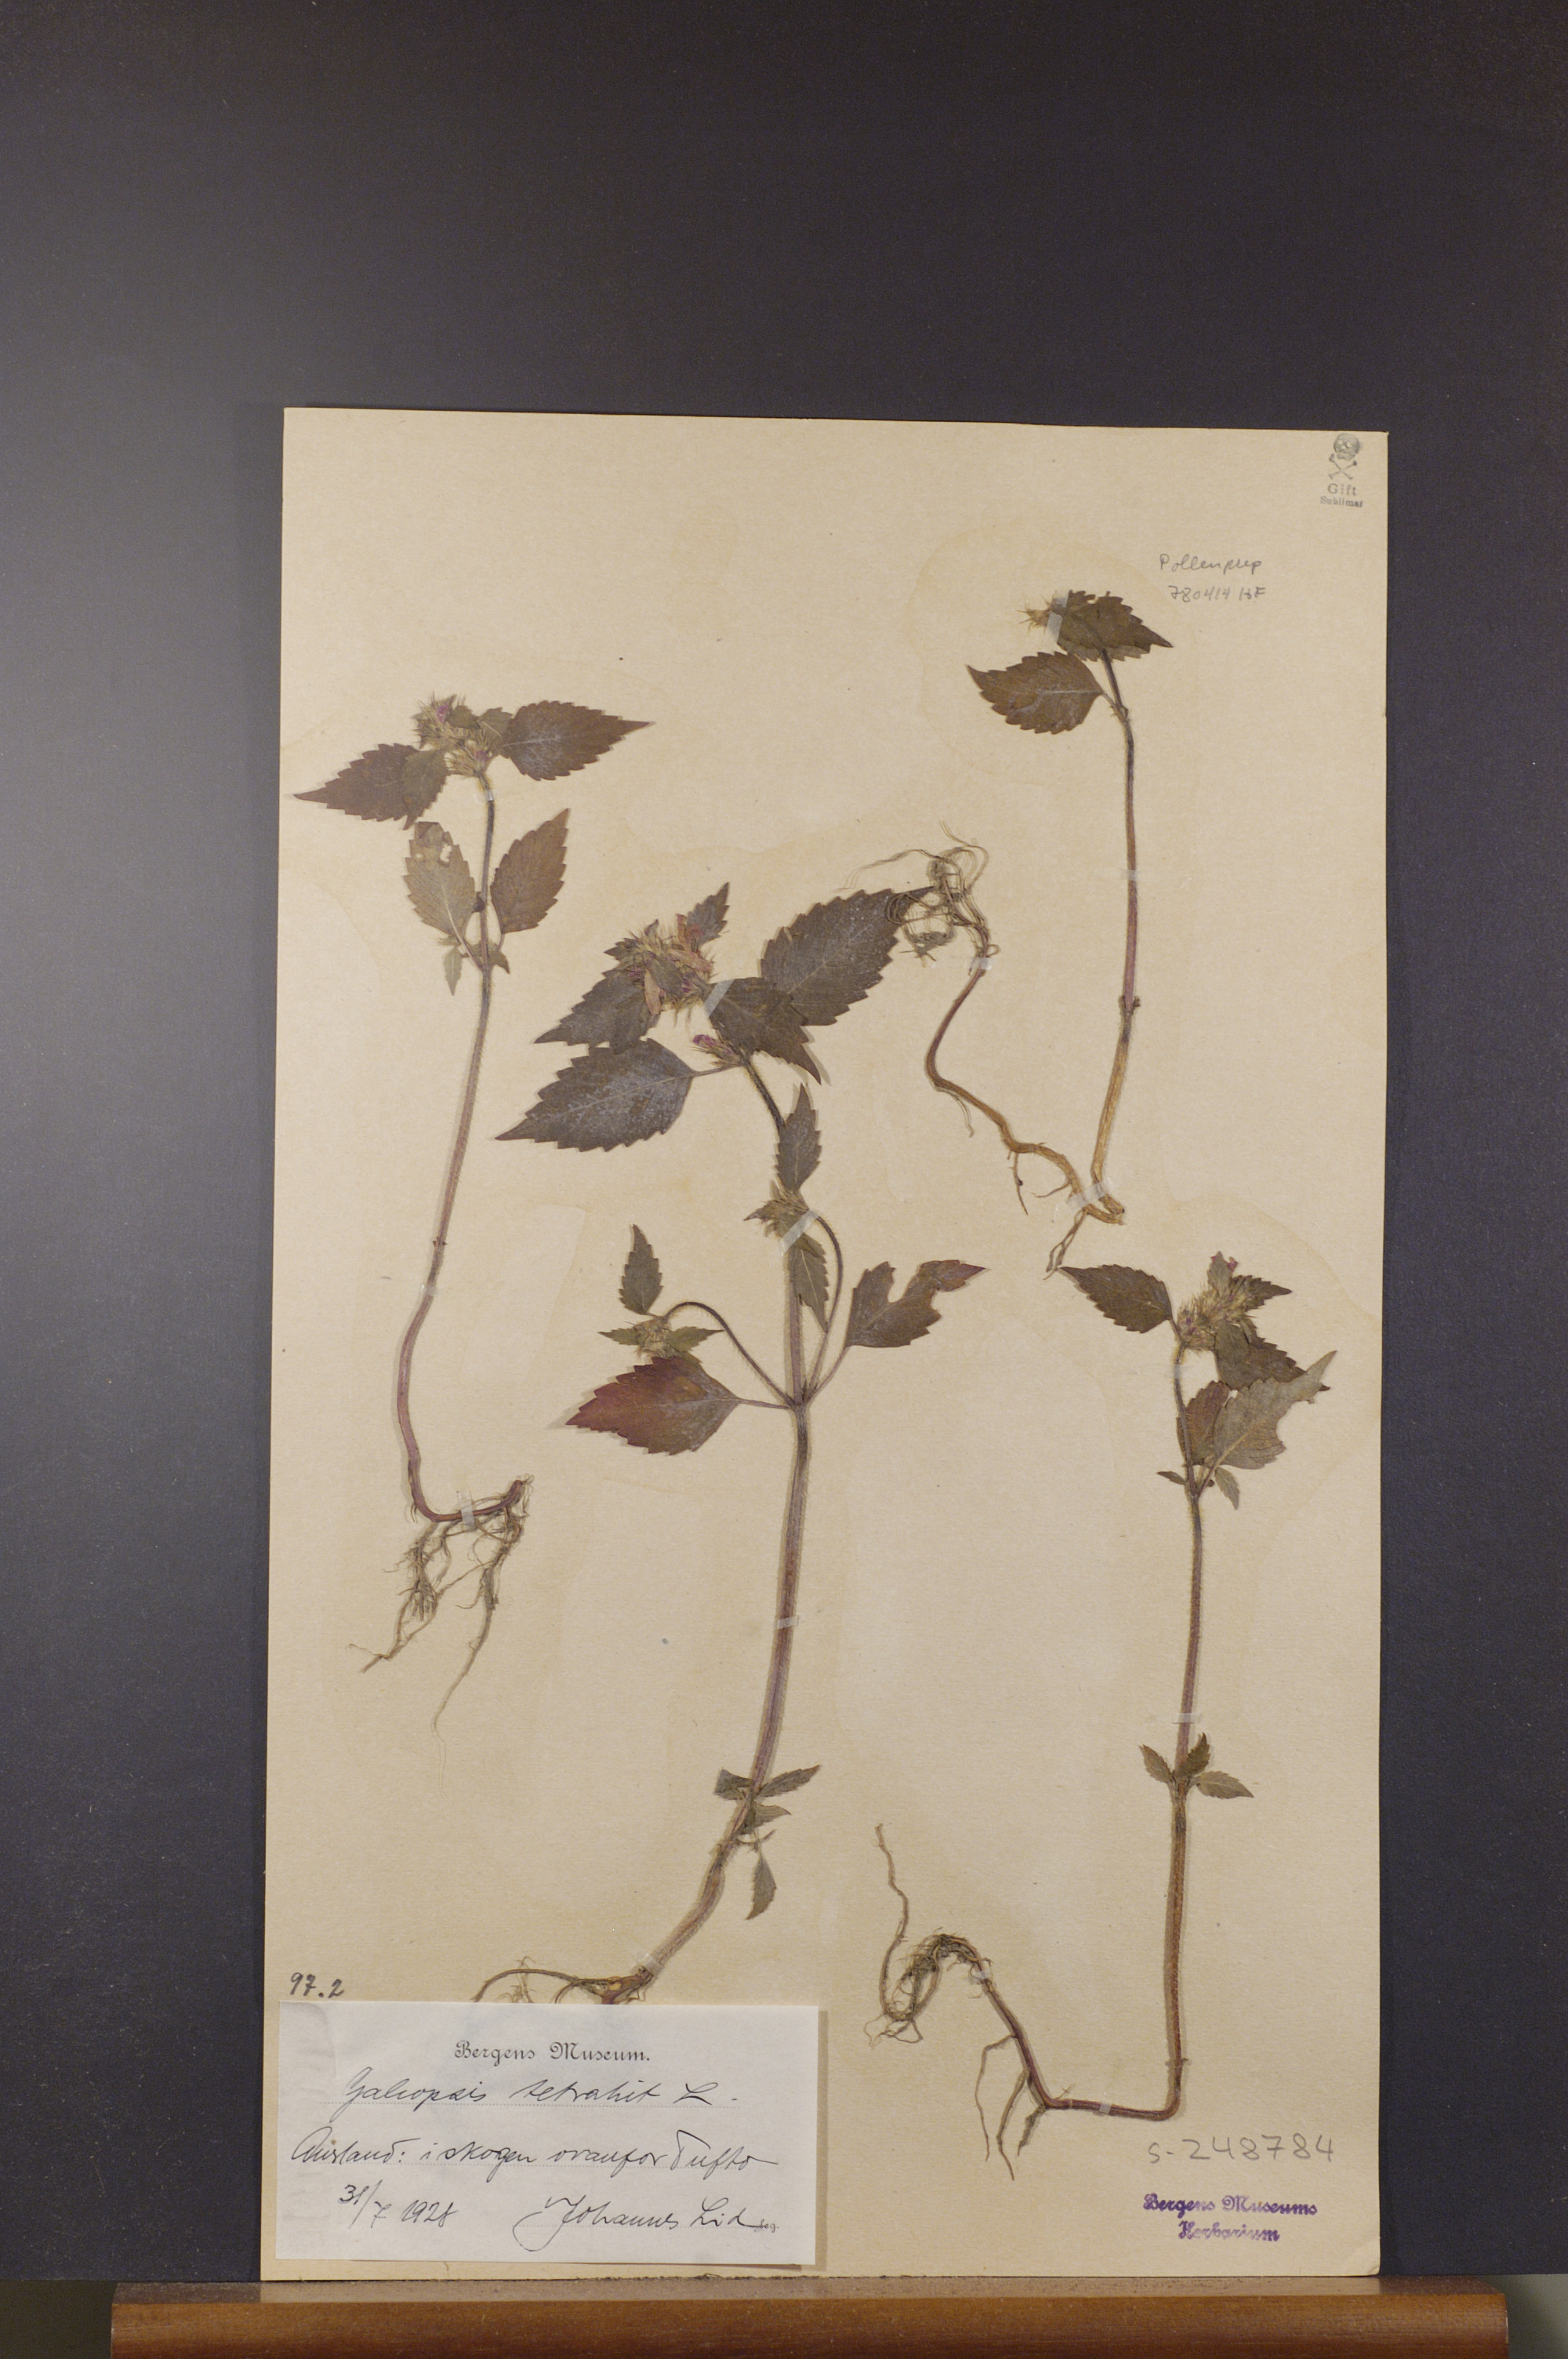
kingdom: Plantae
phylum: Tracheophyta
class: Magnoliopsida
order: Lamiales
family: Lamiaceae
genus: Galeopsis
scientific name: Galeopsis tetrahit
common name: Common hemp-nettle
